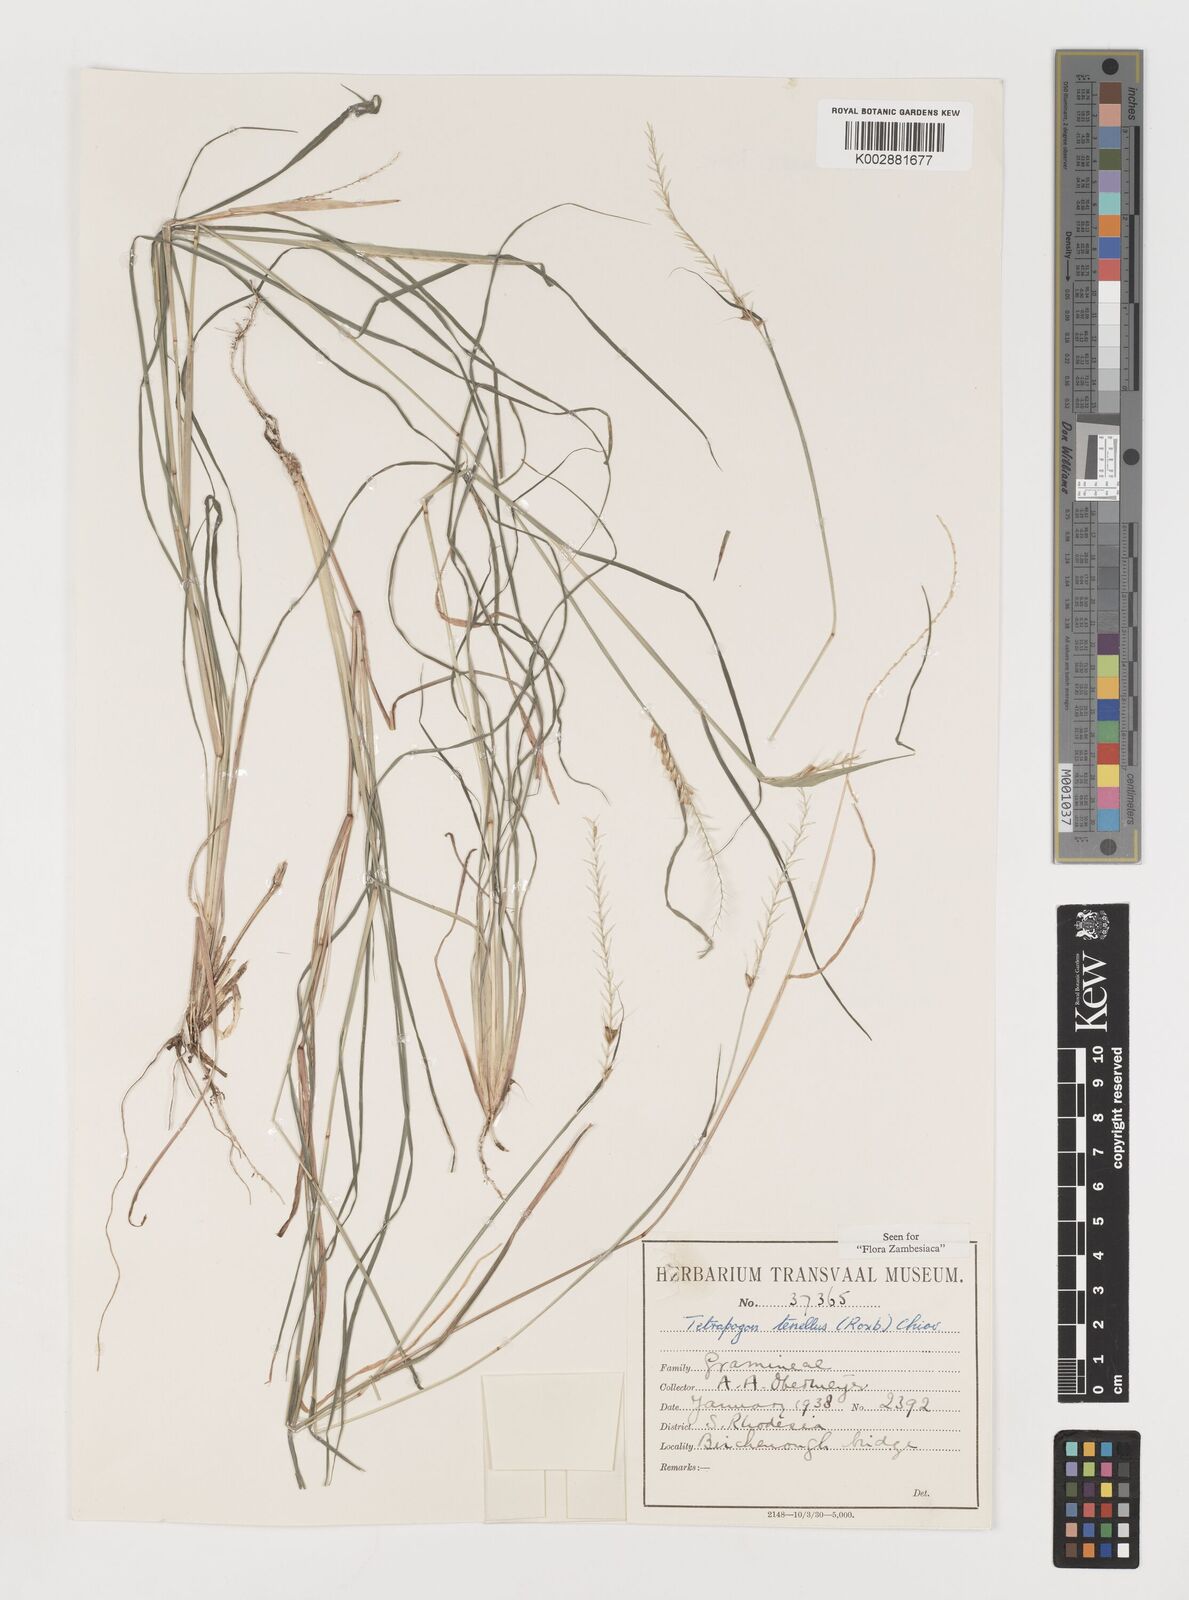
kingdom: Plantae
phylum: Tracheophyta
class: Liliopsida
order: Poales
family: Poaceae
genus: Tetrapogon
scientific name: Tetrapogon tenellus
